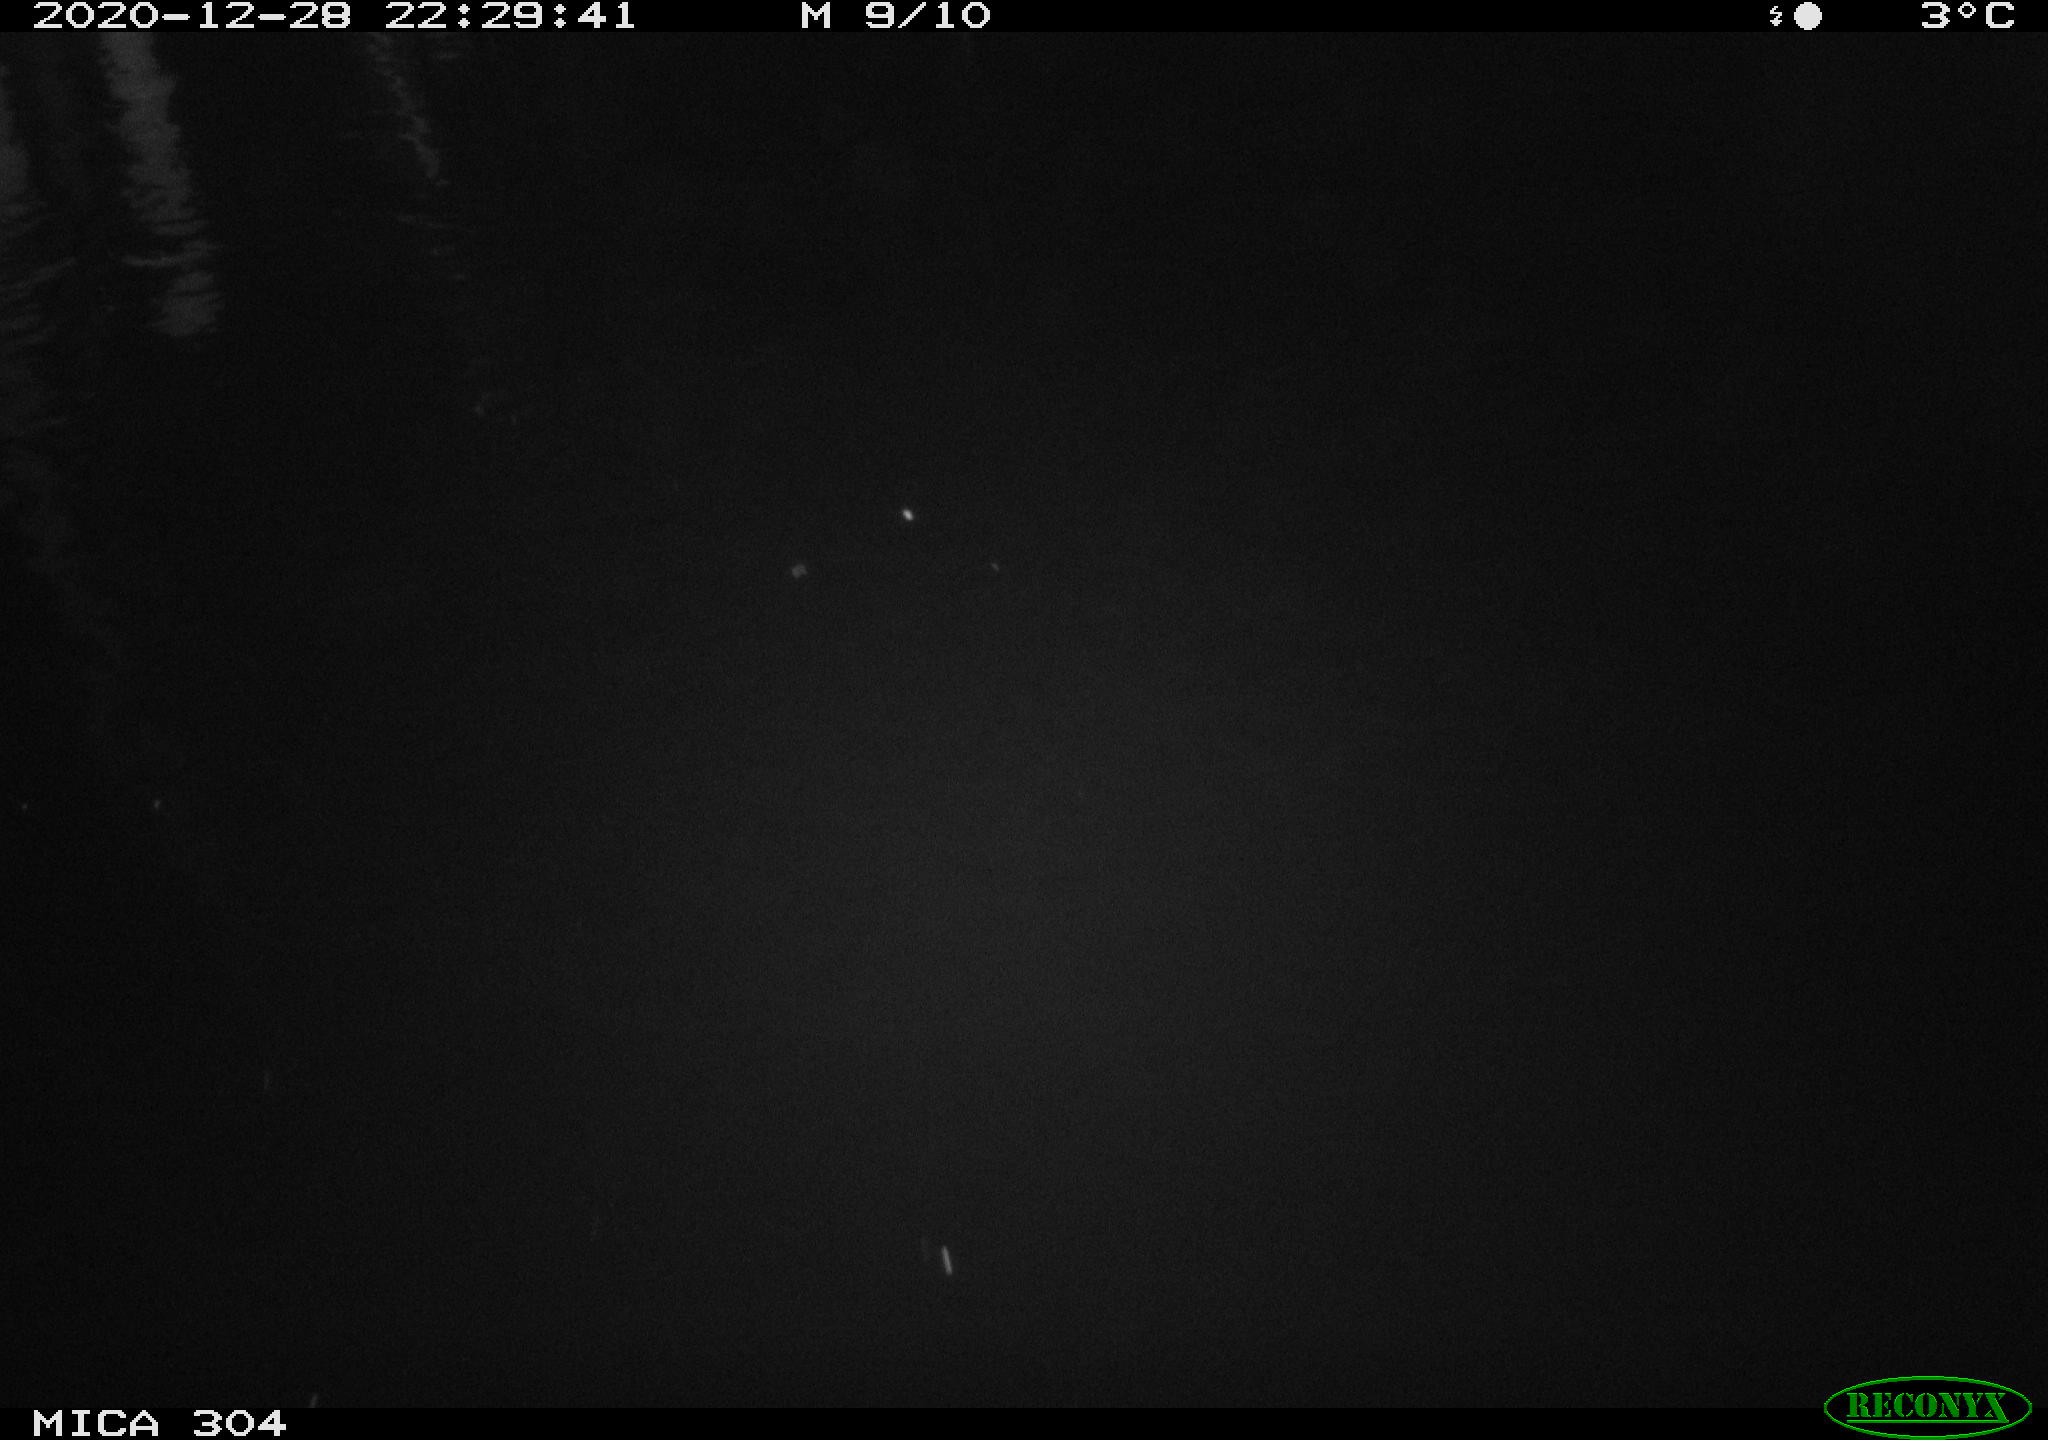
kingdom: Animalia
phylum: Chordata
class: Mammalia
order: Rodentia
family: Muridae
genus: Rattus
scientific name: Rattus norvegicus
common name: Brown rat
